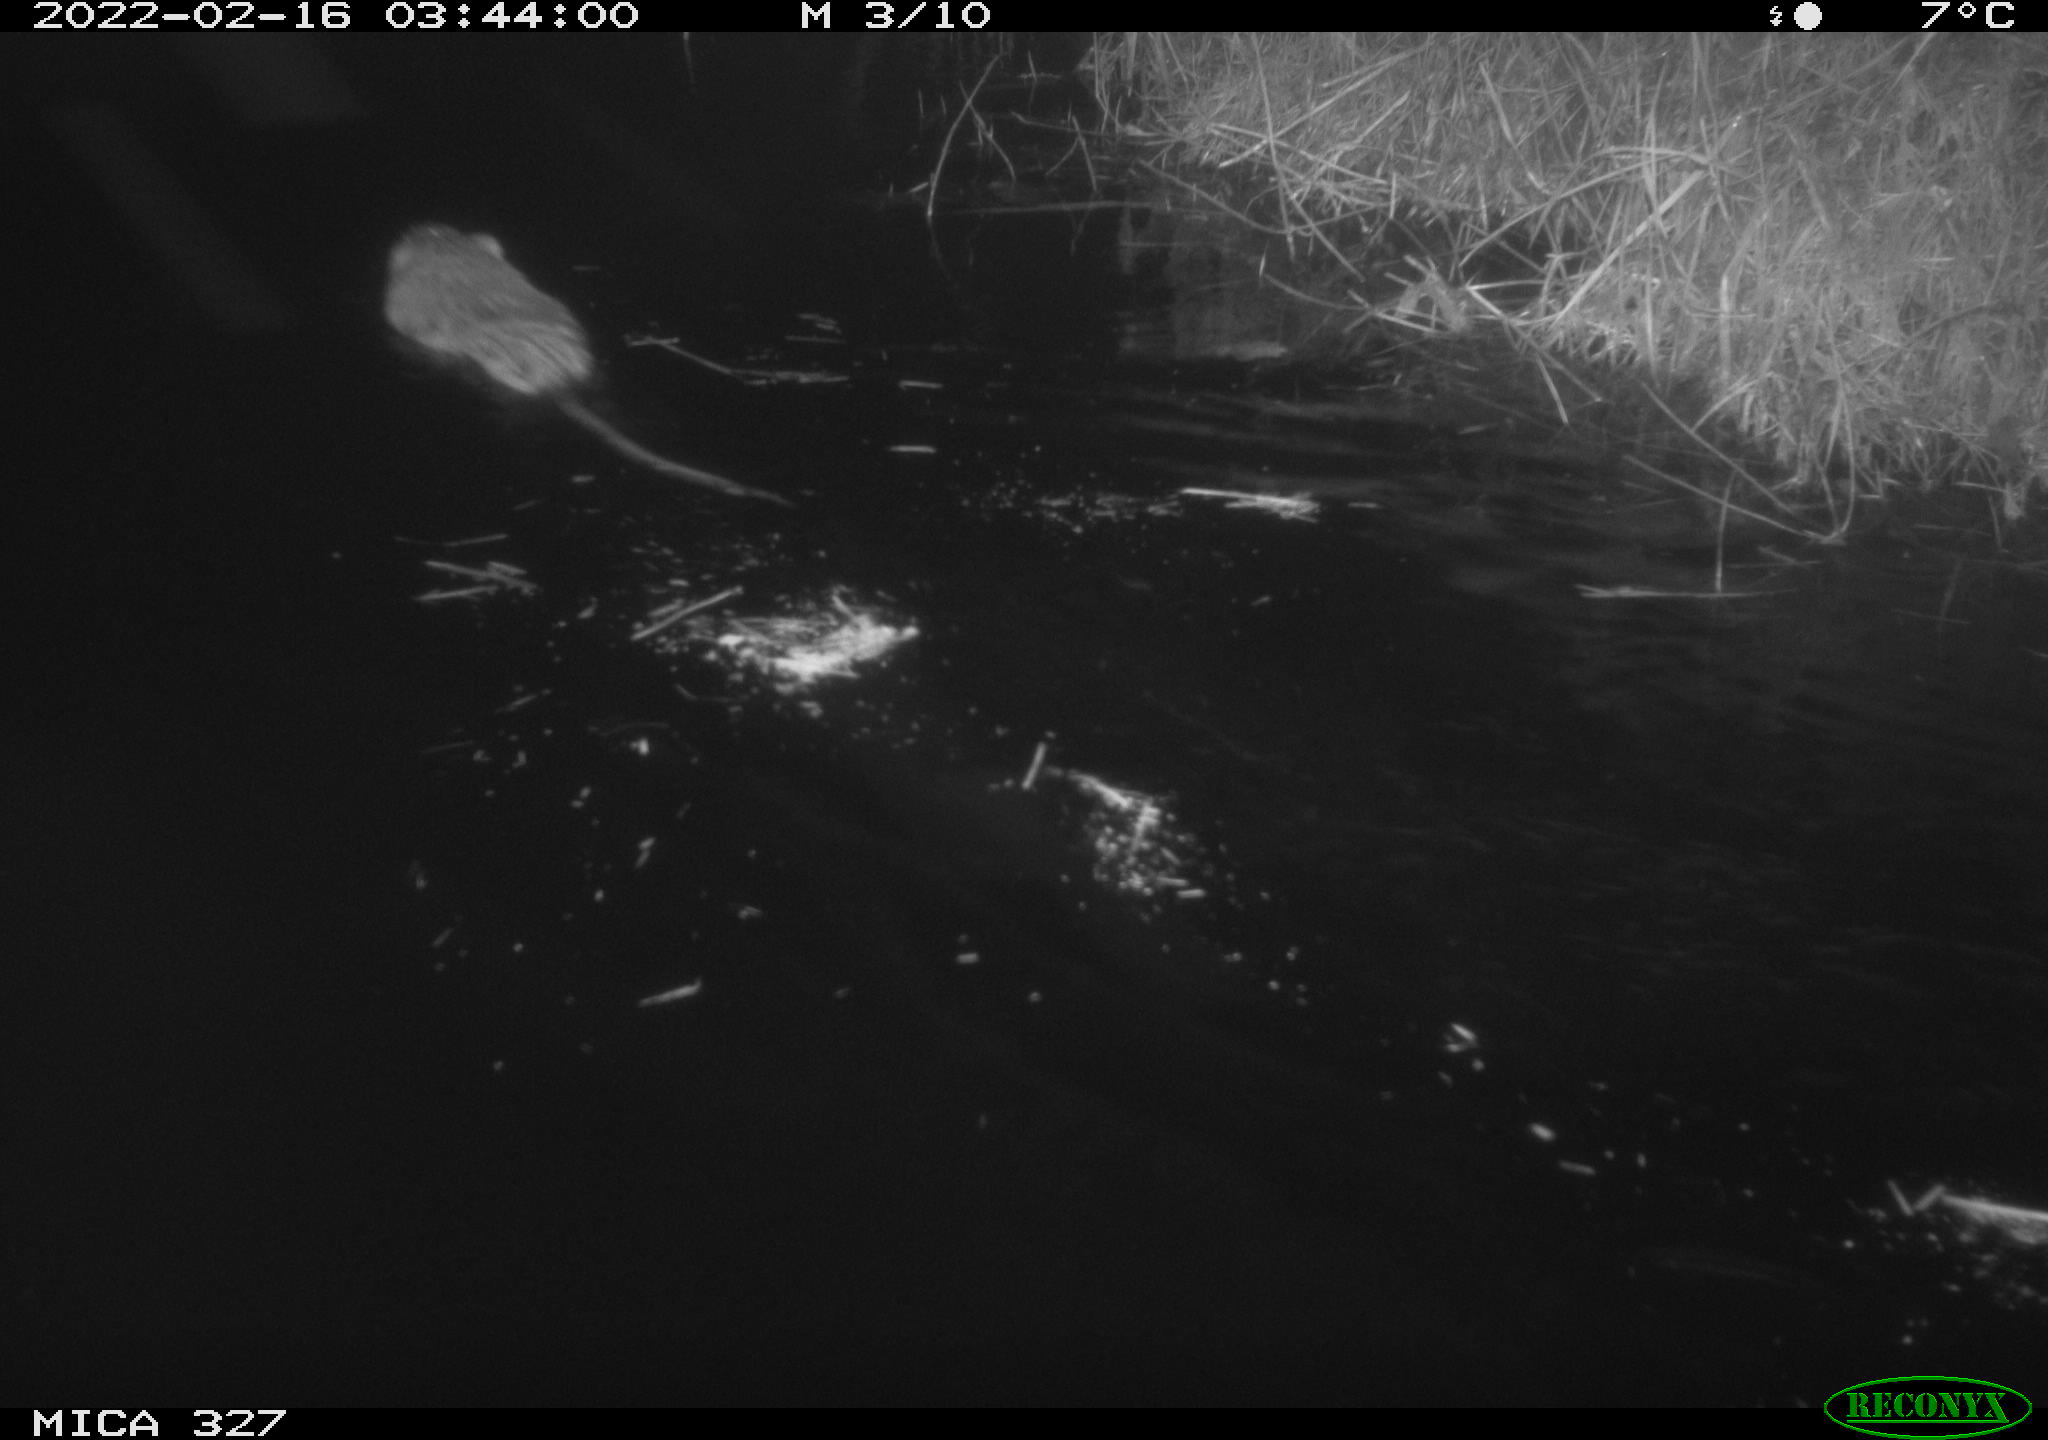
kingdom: Animalia
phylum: Chordata
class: Mammalia
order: Rodentia
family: Cricetidae
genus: Ondatra
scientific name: Ondatra zibethicus
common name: Muskrat
